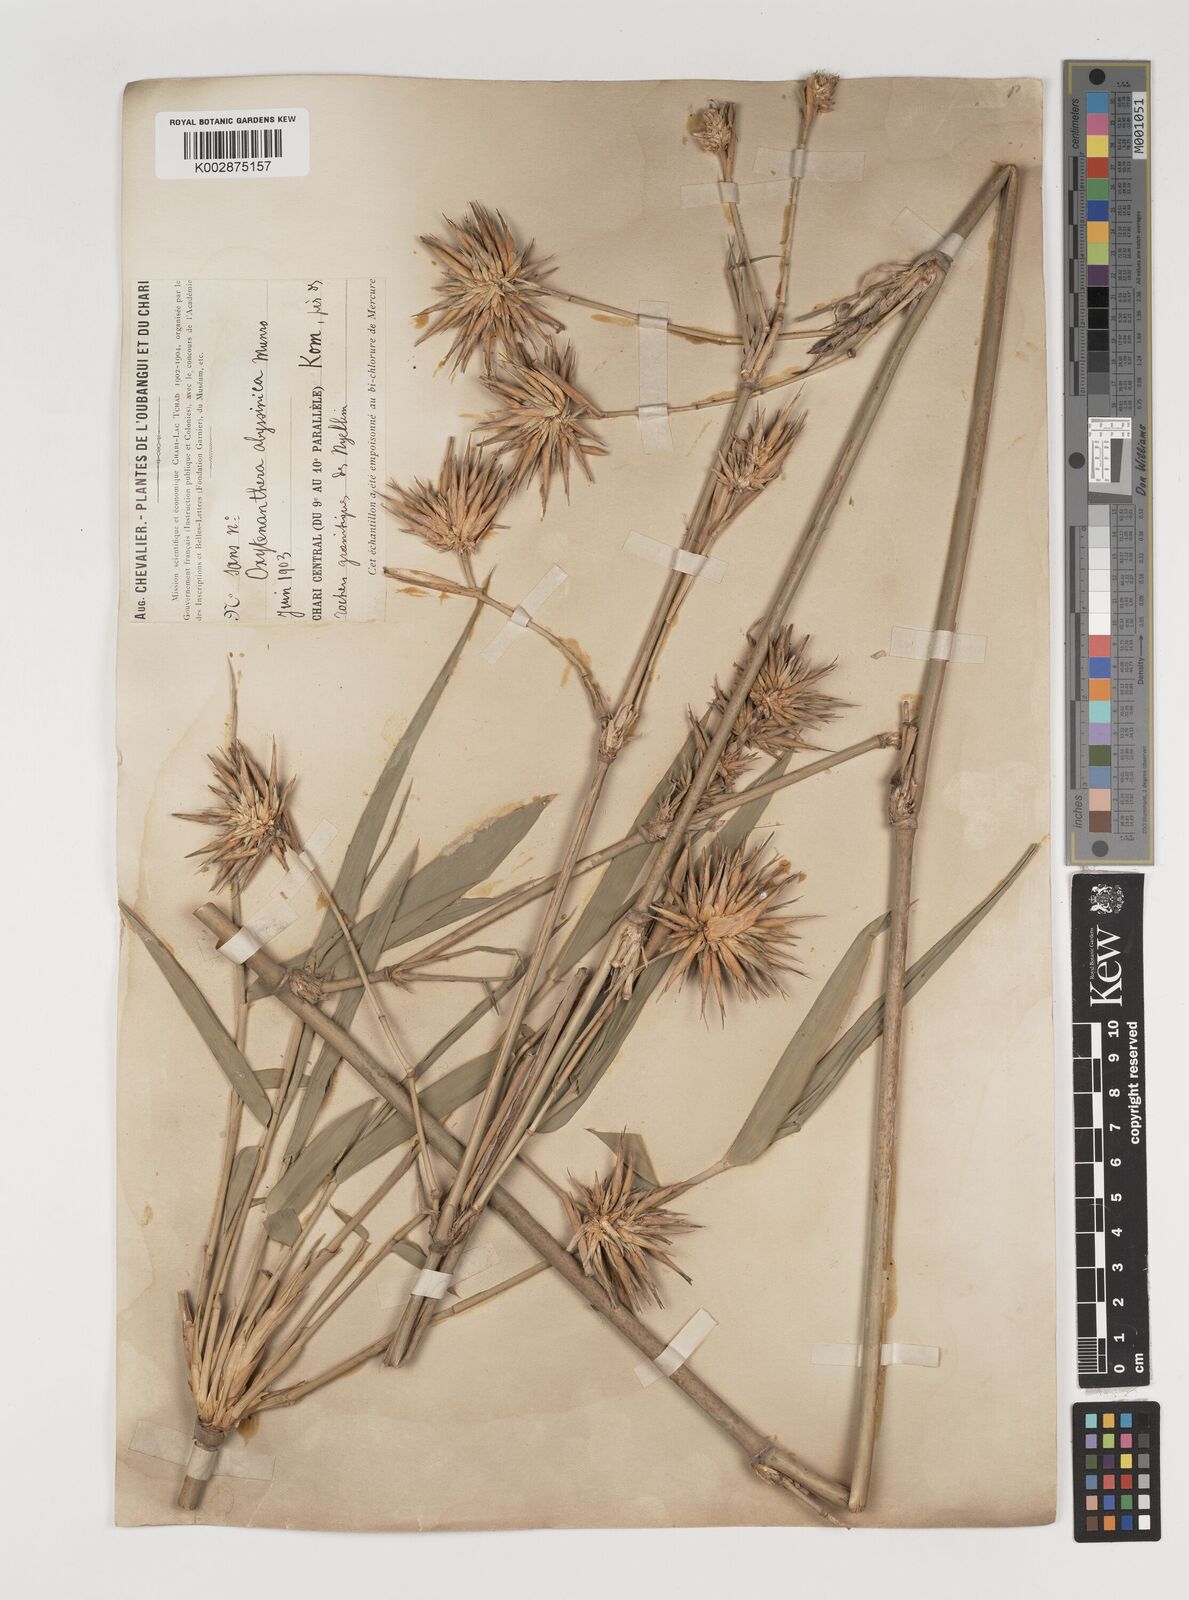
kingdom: Plantae
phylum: Tracheophyta
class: Liliopsida
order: Poales
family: Poaceae
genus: Oxytenanthera
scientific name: Oxytenanthera abyssinica
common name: Wine bamboo
